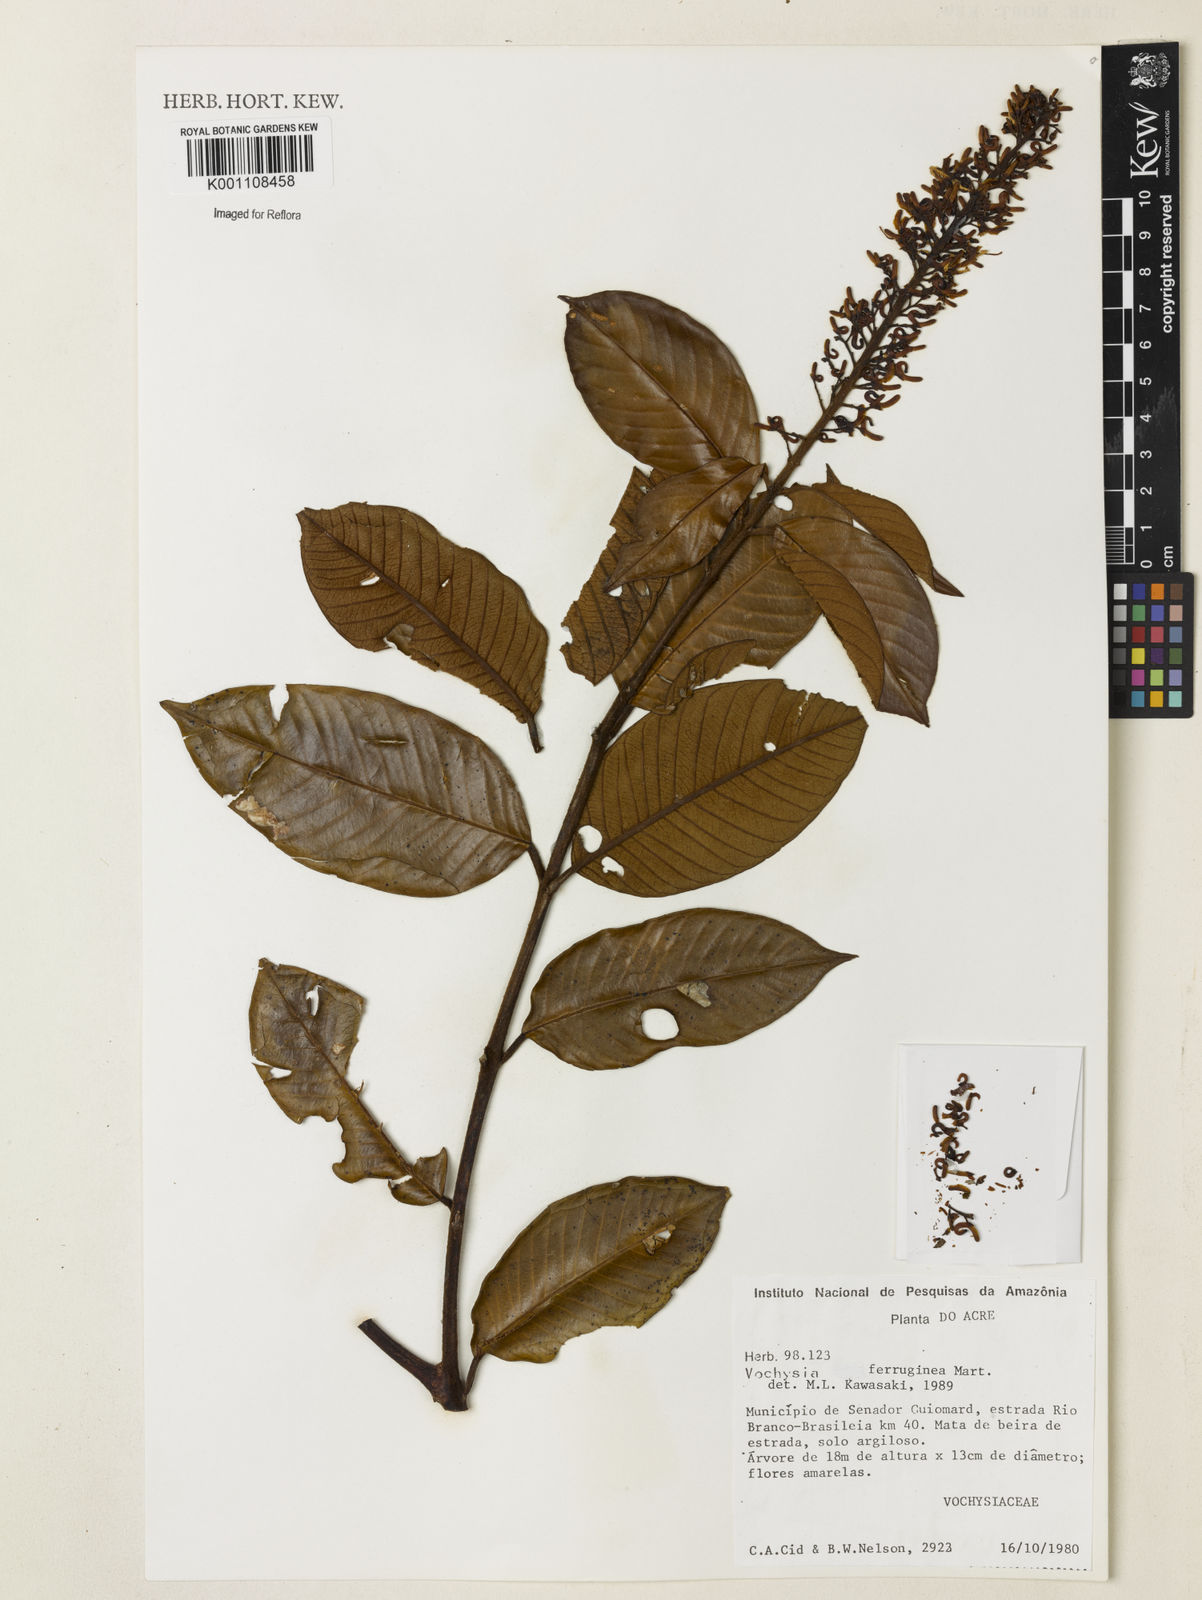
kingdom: Plantae
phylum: Tracheophyta
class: Magnoliopsida
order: Myrtales
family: Vochysiaceae
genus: Vochysia
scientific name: Vochysia ferruginea
